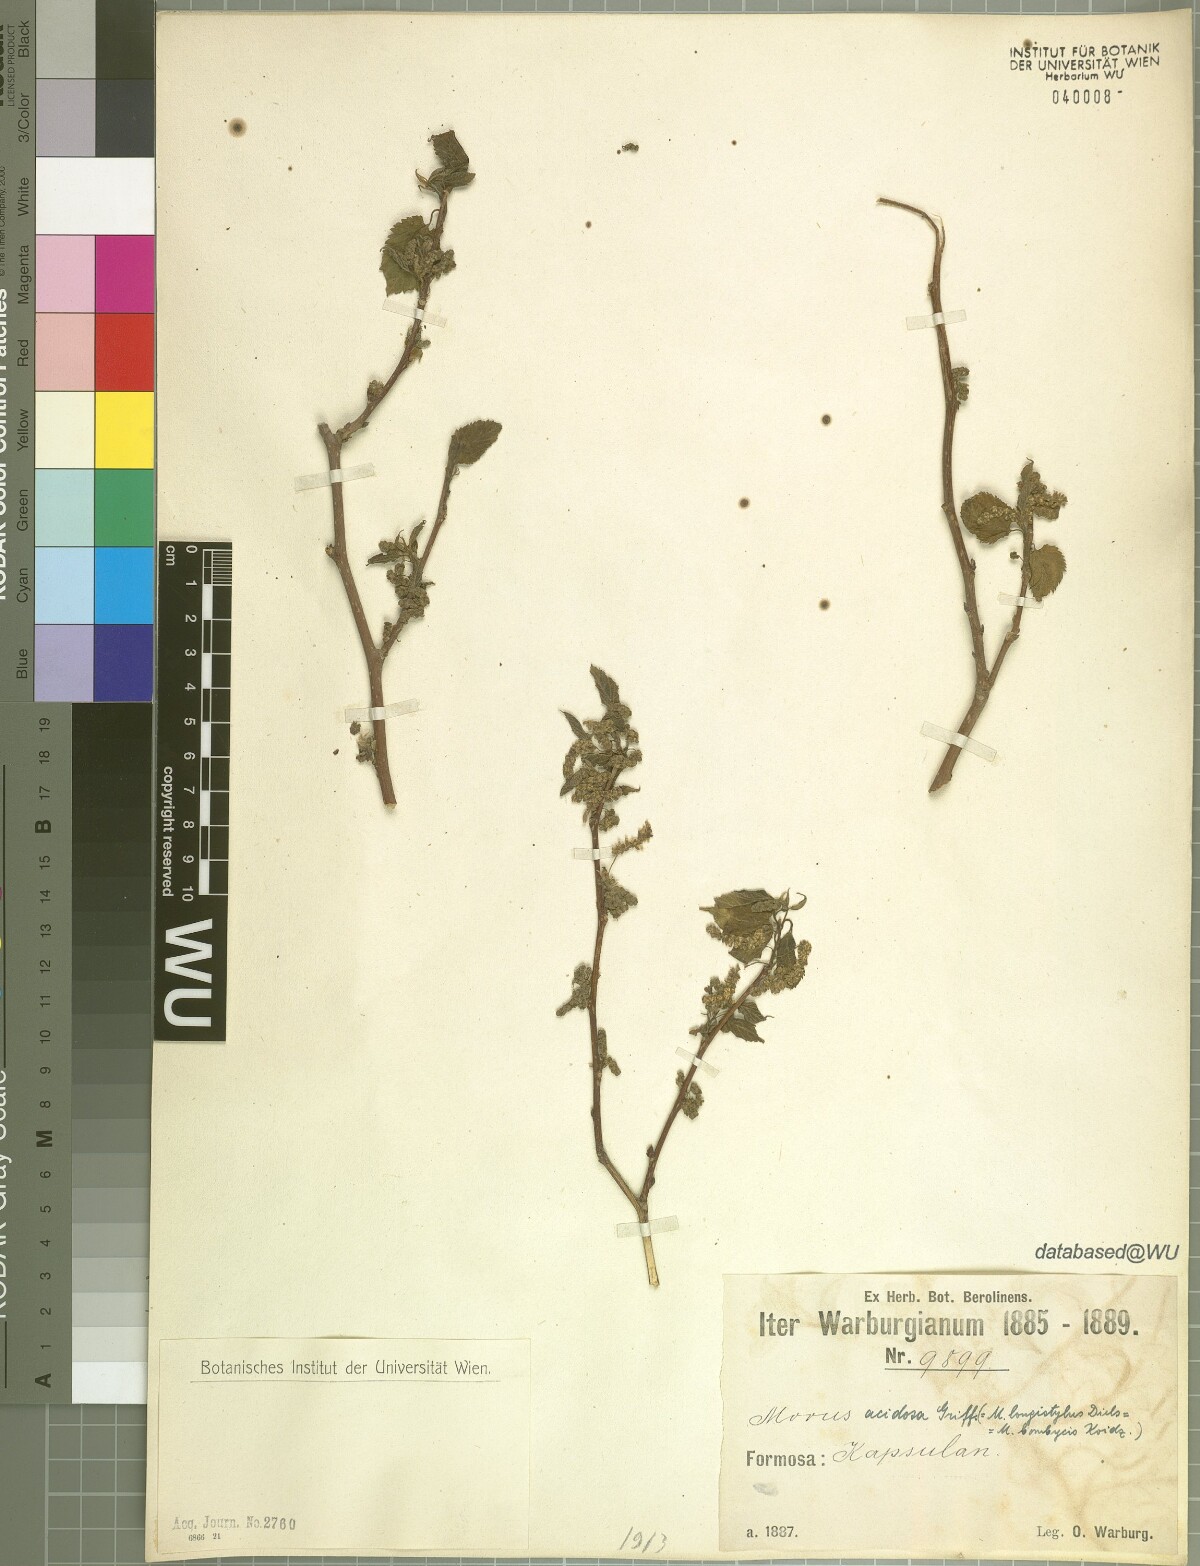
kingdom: Plantae
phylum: Tracheophyta
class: Magnoliopsida
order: Rosales
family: Moraceae
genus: Broussonetia
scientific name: Broussonetia papyrifera
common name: Paper mulberry
